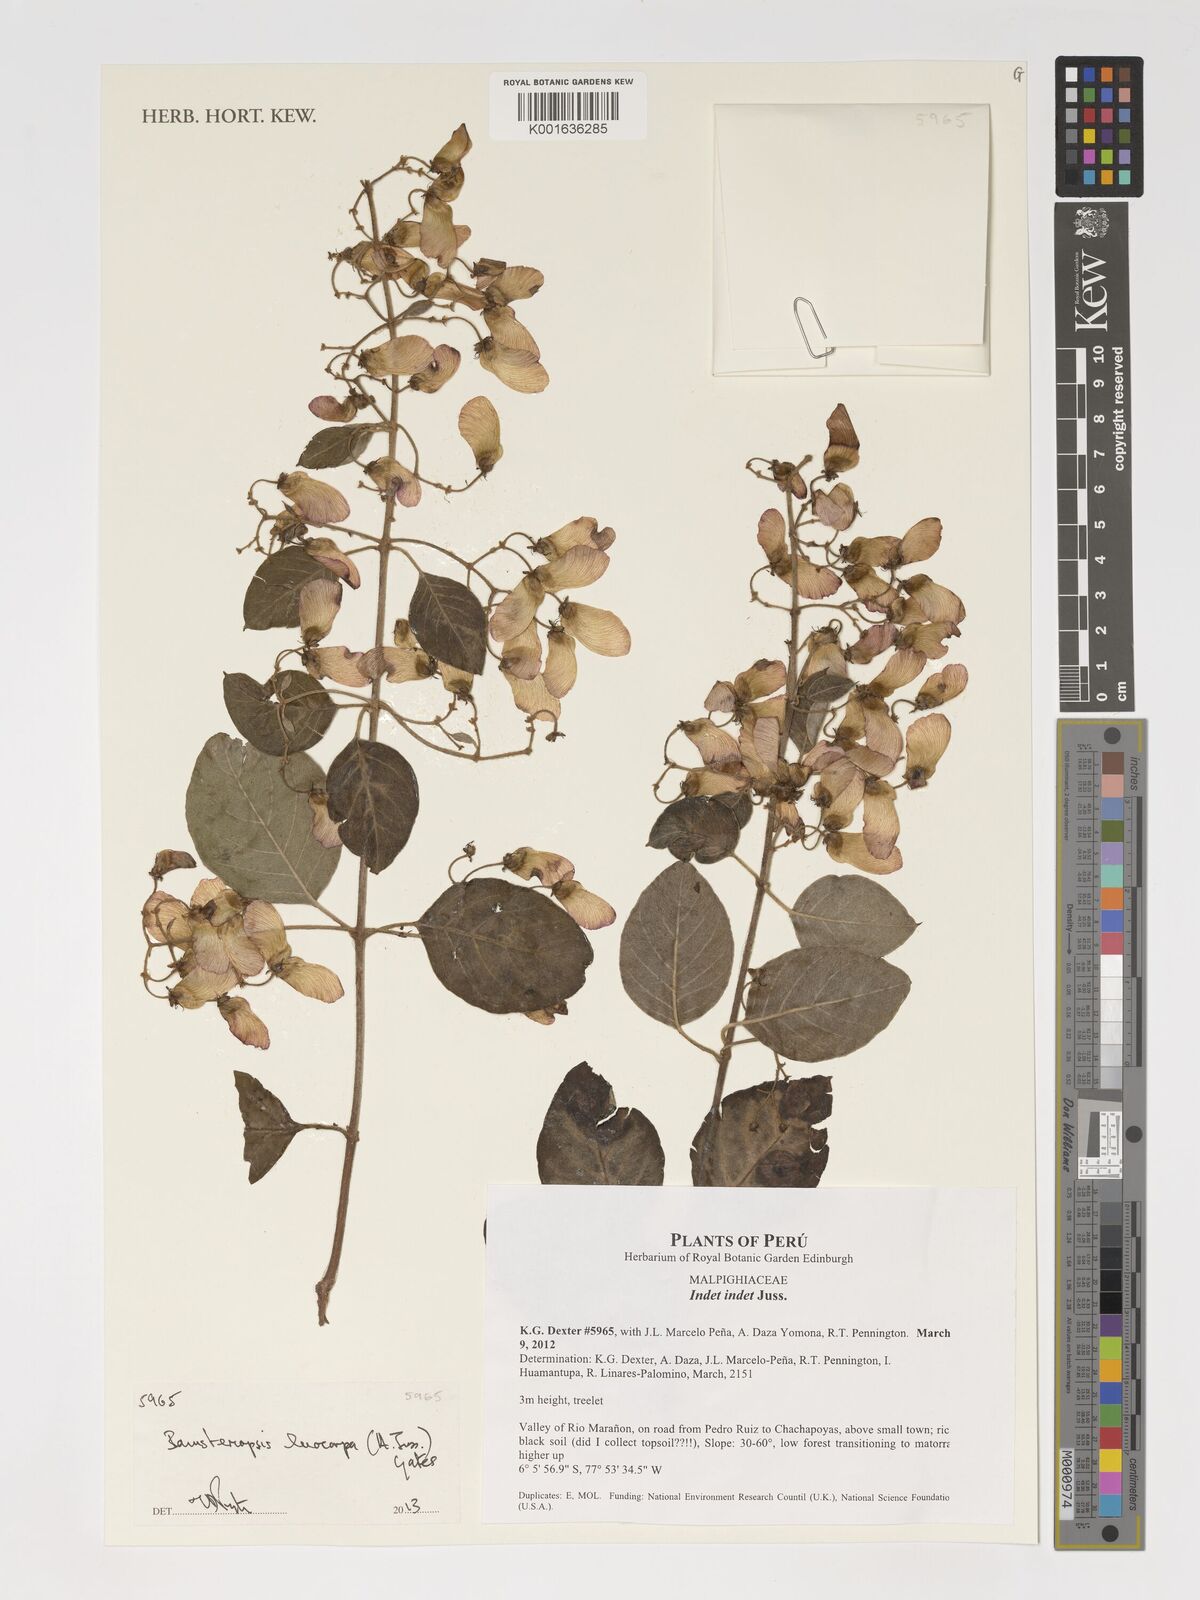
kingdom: Plantae
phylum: Tracheophyta
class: Magnoliopsida
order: Malpighiales
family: Malpighiaceae
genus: Diplopterys
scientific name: Diplopterys leiocarpa
